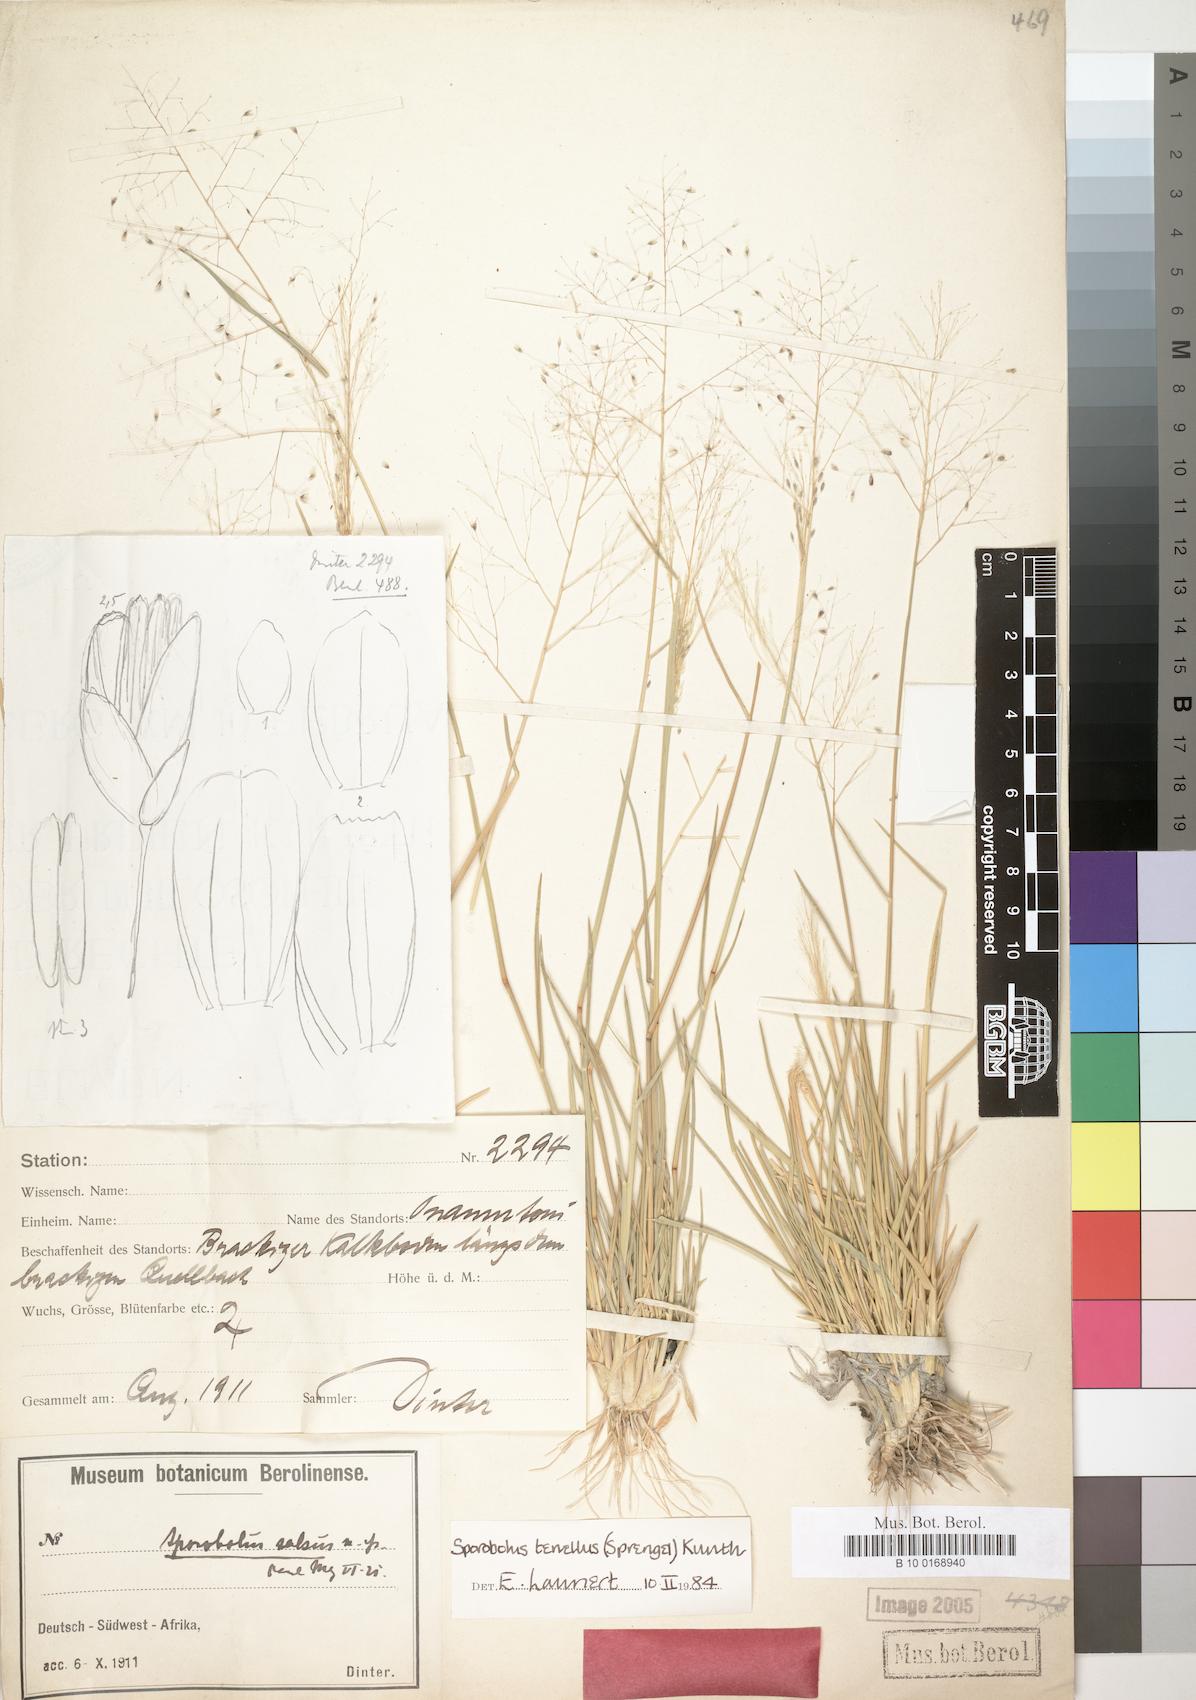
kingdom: Plantae
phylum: Tracheophyta
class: Liliopsida
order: Poales
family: Poaceae
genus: Sporobolus
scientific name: Sporobolus salsus
